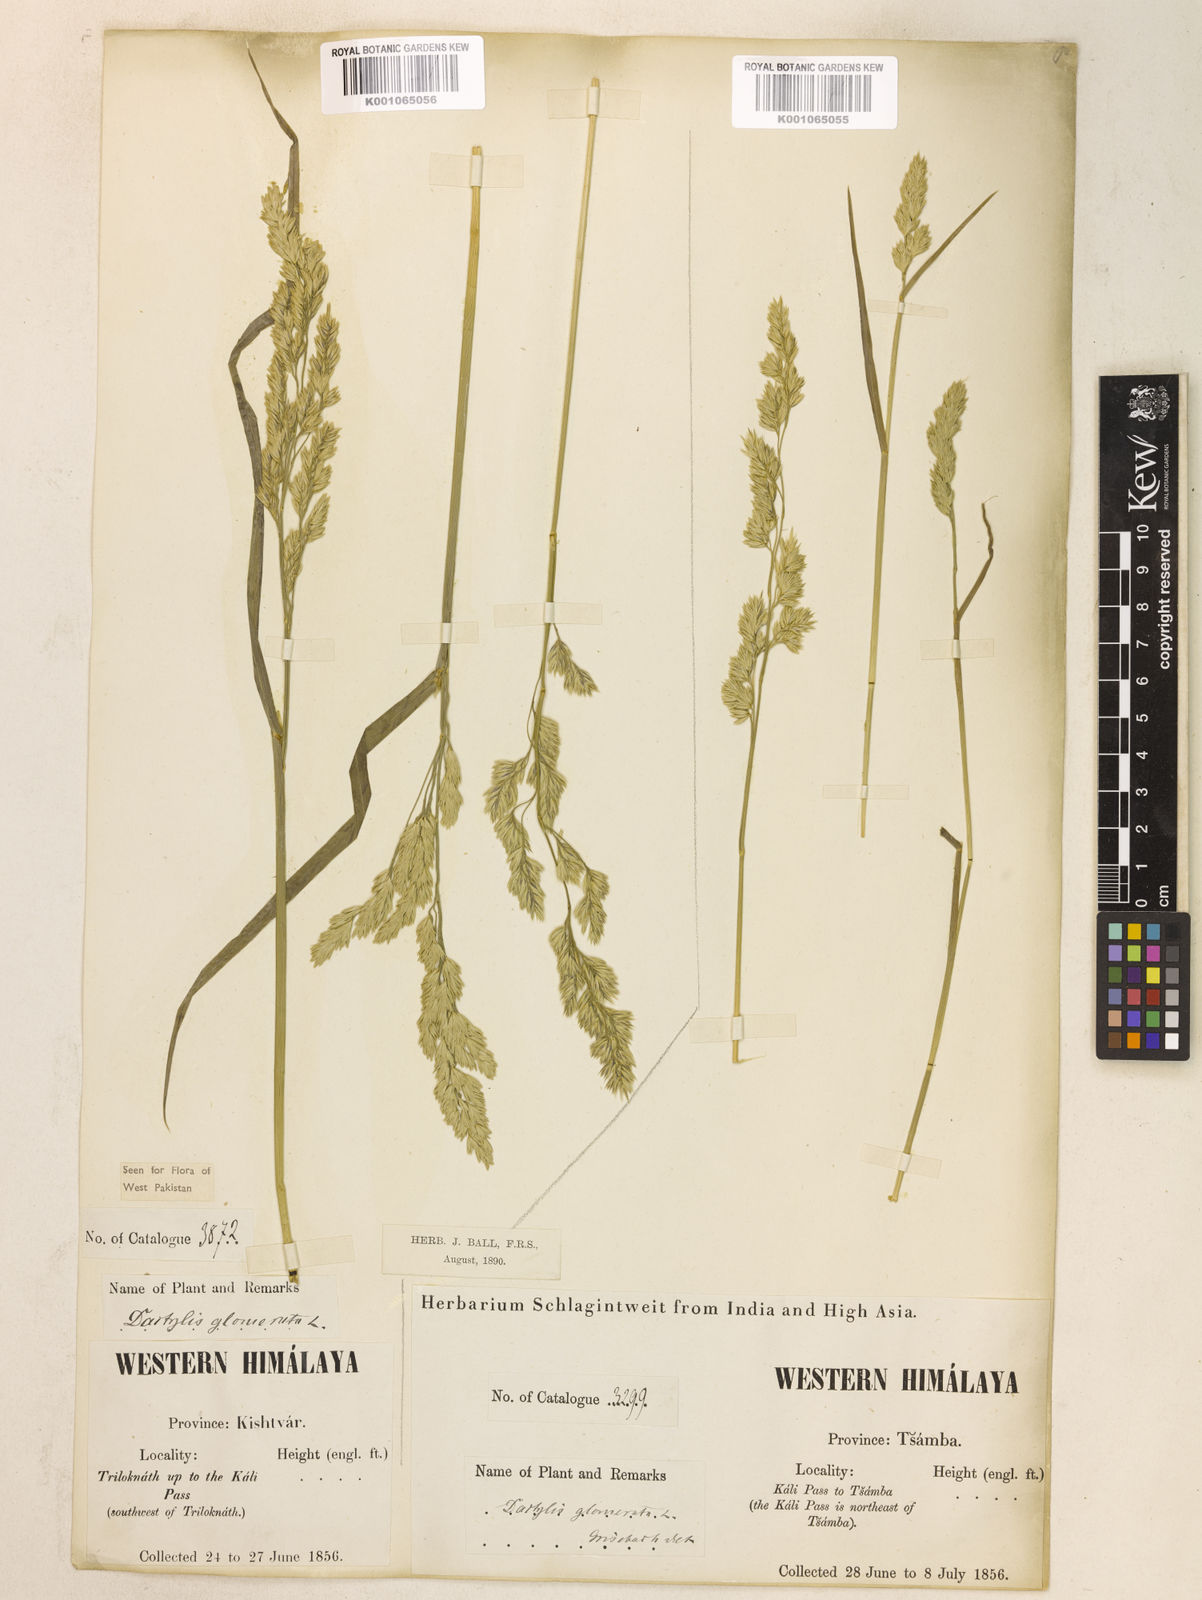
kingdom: Plantae
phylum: Tracheophyta
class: Liliopsida
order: Poales
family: Poaceae
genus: Dactylis
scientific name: Dactylis glomerata
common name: Orchardgrass
